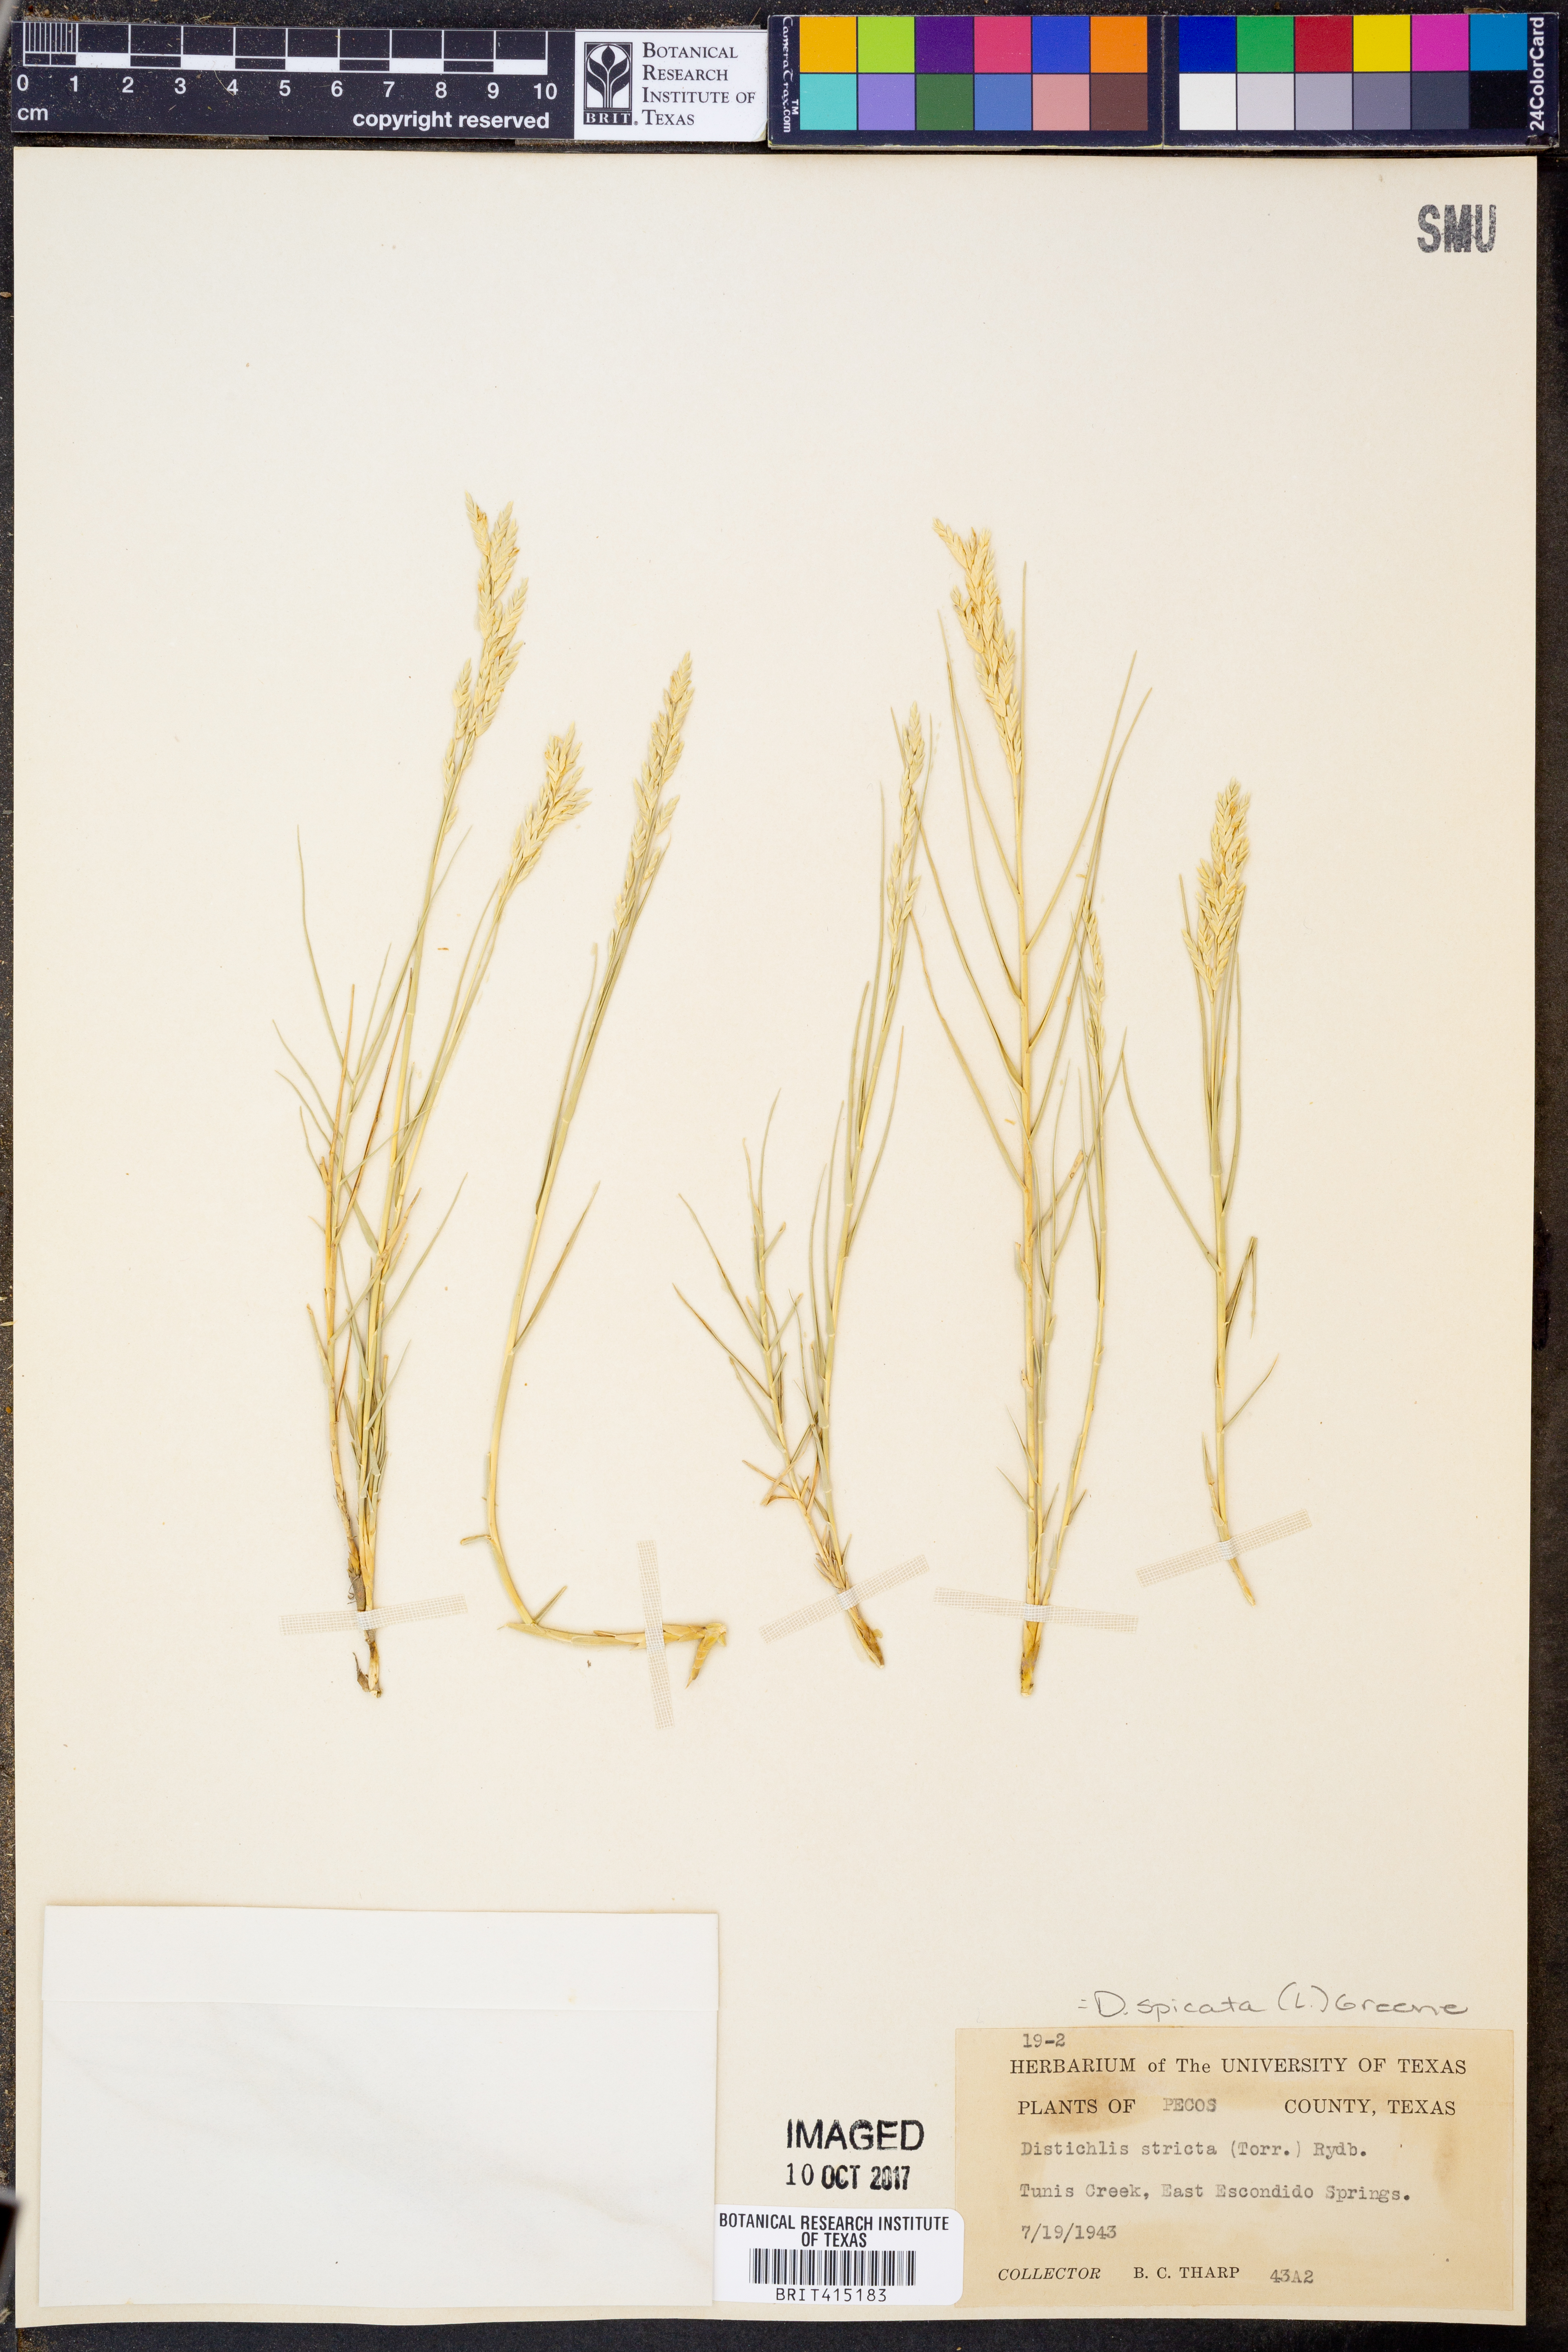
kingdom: Plantae
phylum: Tracheophyta
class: Liliopsida
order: Poales
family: Poaceae
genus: Distichlis
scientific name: Distichlis spicata
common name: Saltgrass
